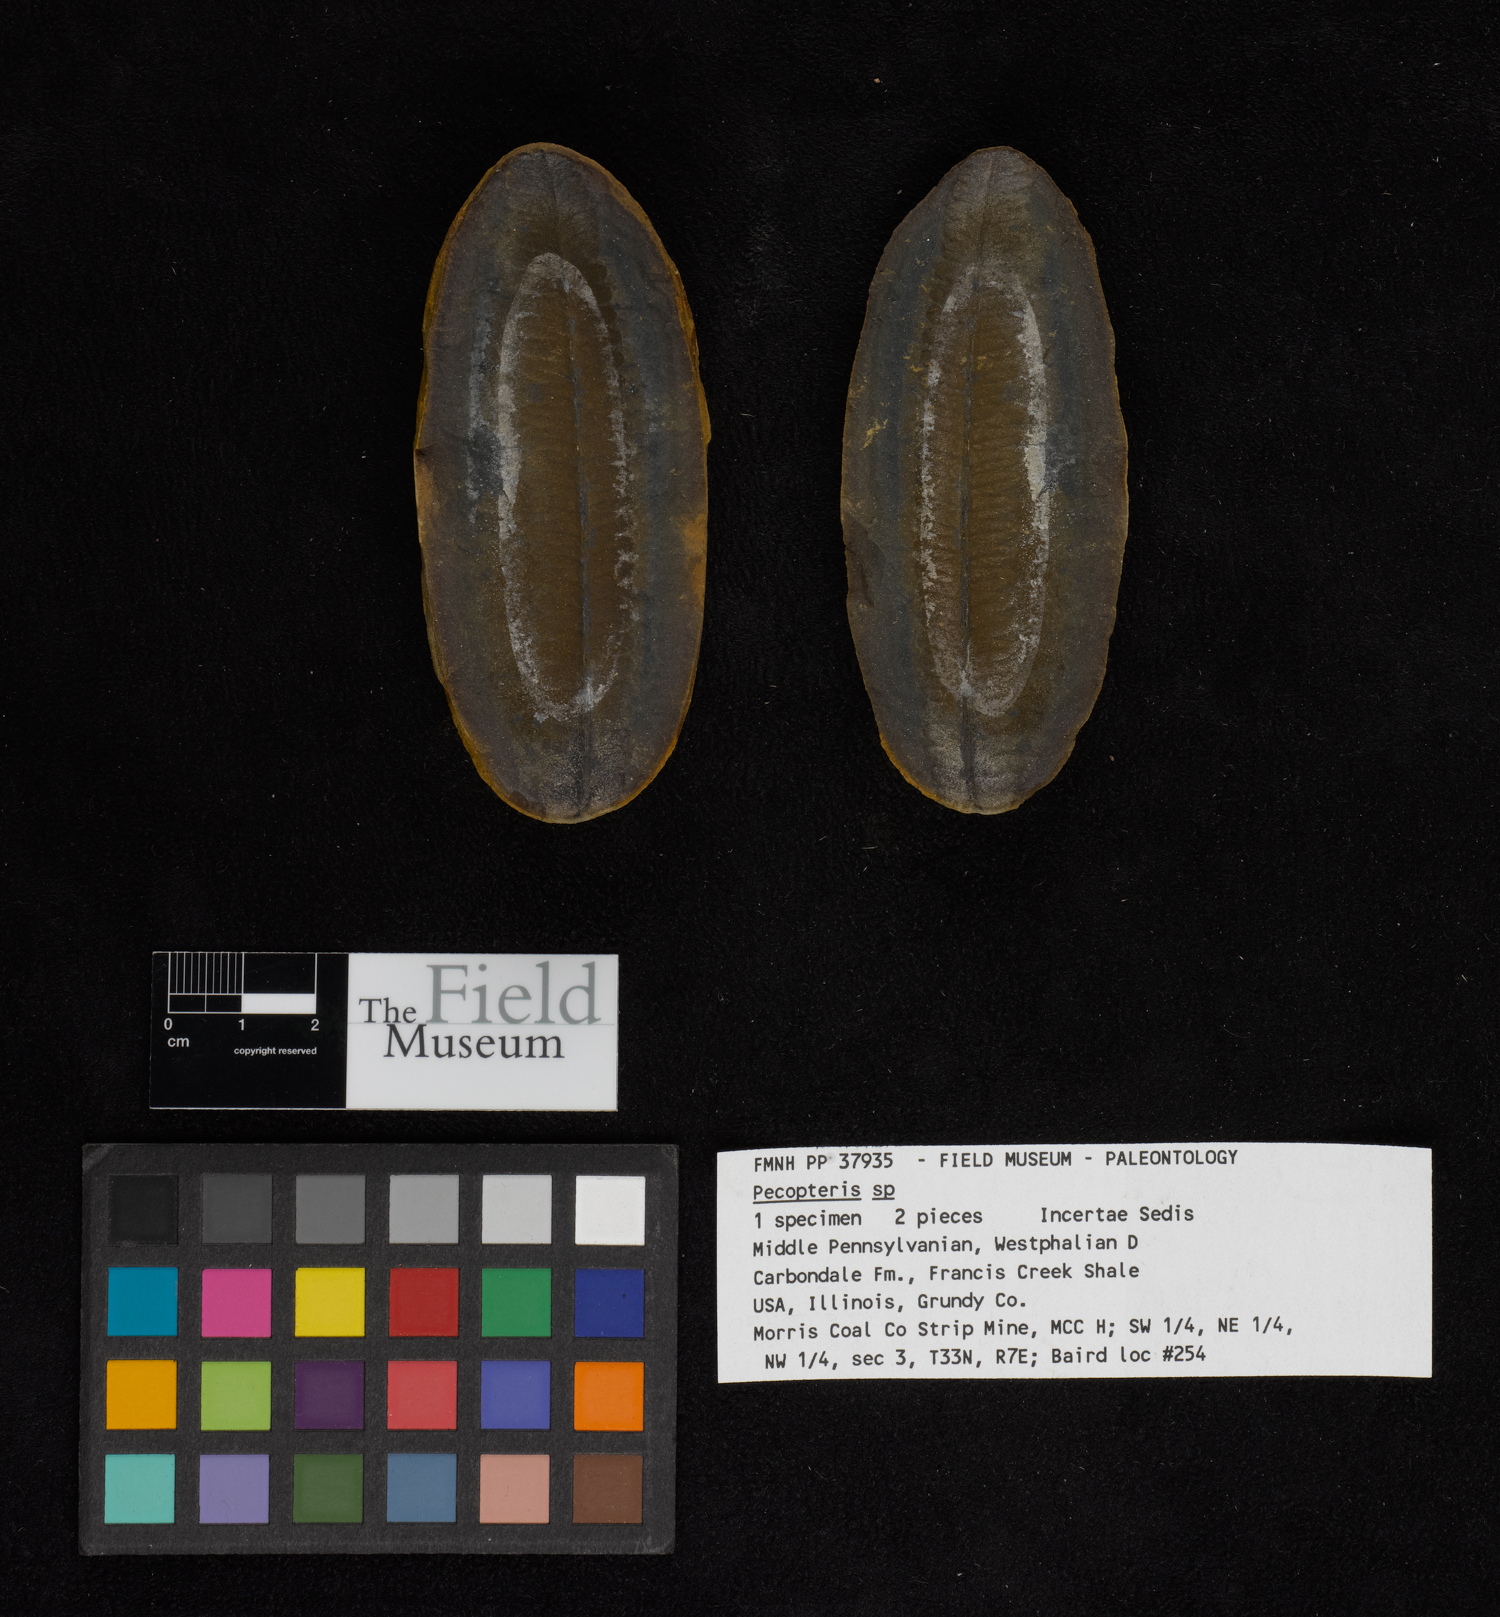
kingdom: Plantae
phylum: Tracheophyta
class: Polypodiopsida
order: Marattiales
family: Asterothecaceae
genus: Pecopteris
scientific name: Pecopteris
